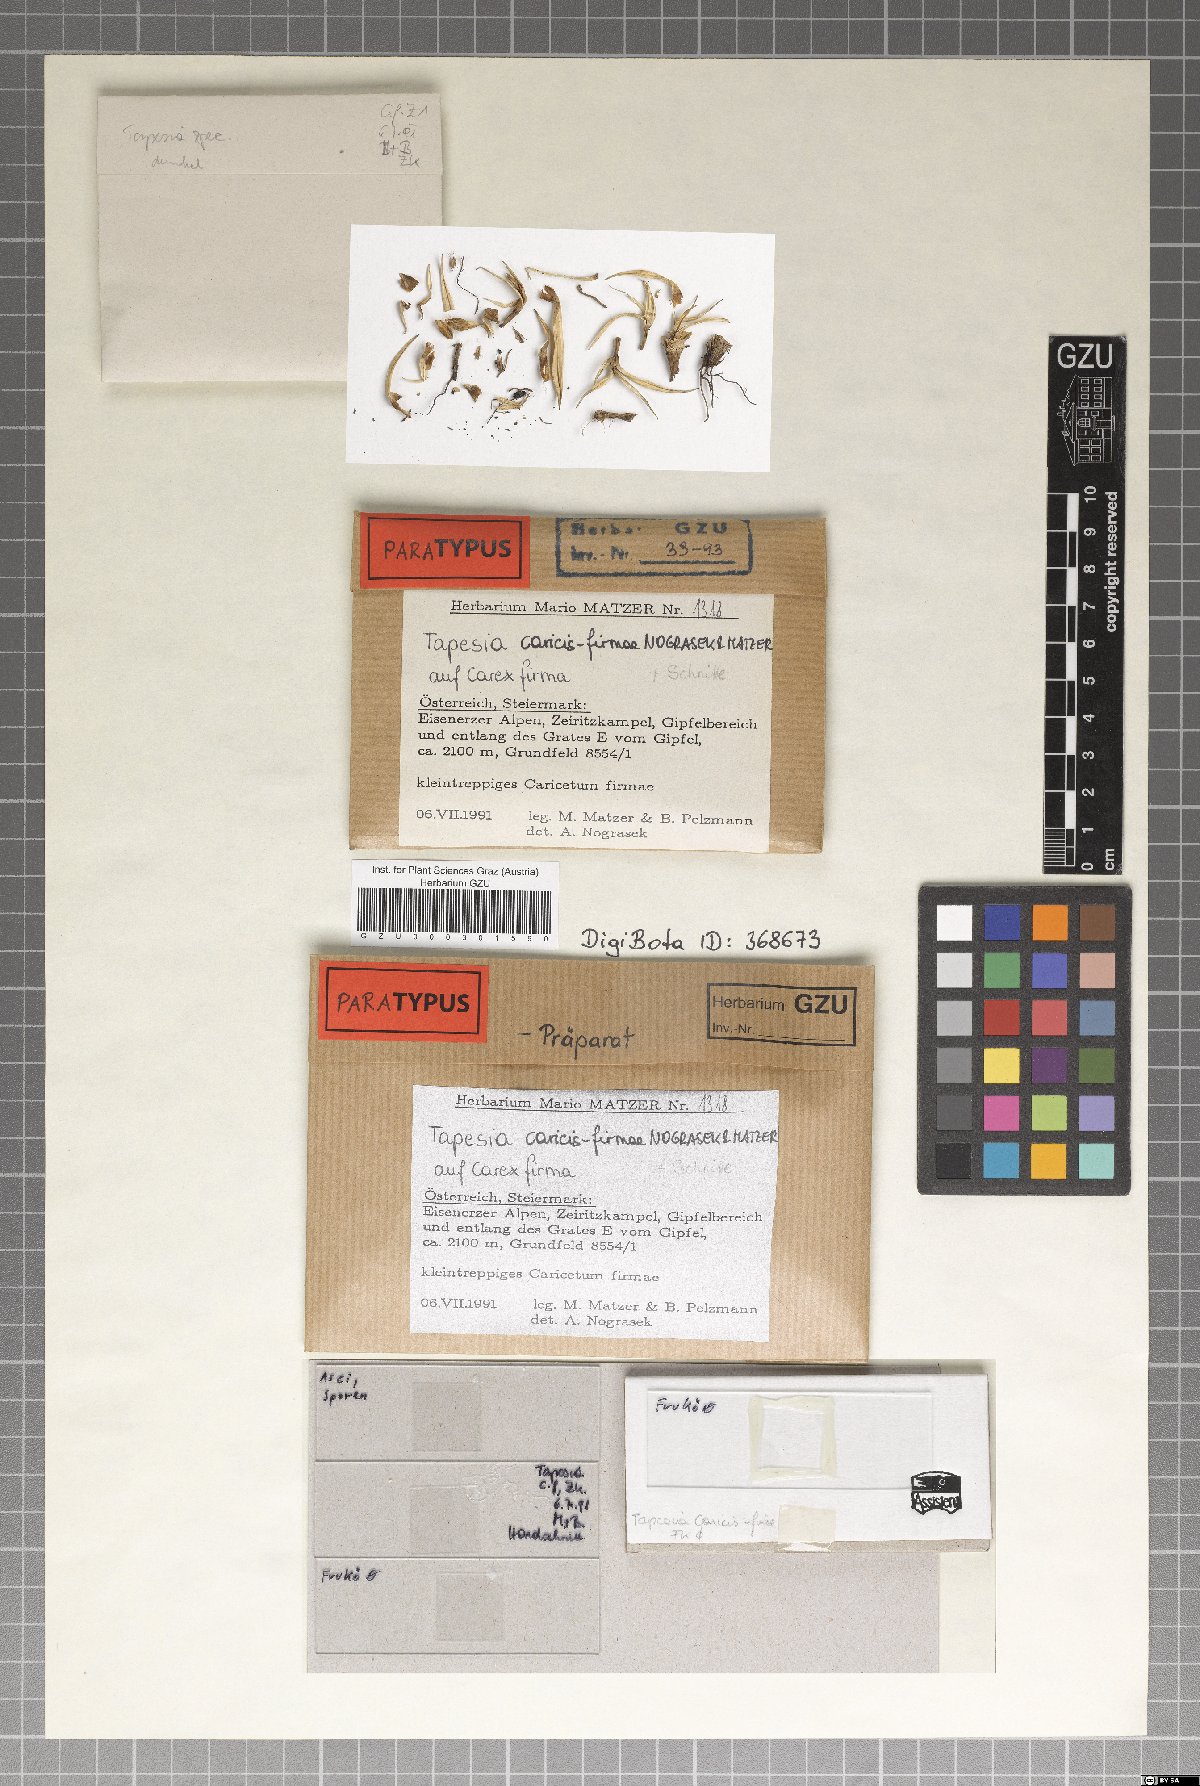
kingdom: Fungi
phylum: Ascomycota
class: Leotiomycetes
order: Helotiales
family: Mollisiaceae
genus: Tapesia
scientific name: Tapesia caricis-firmae
